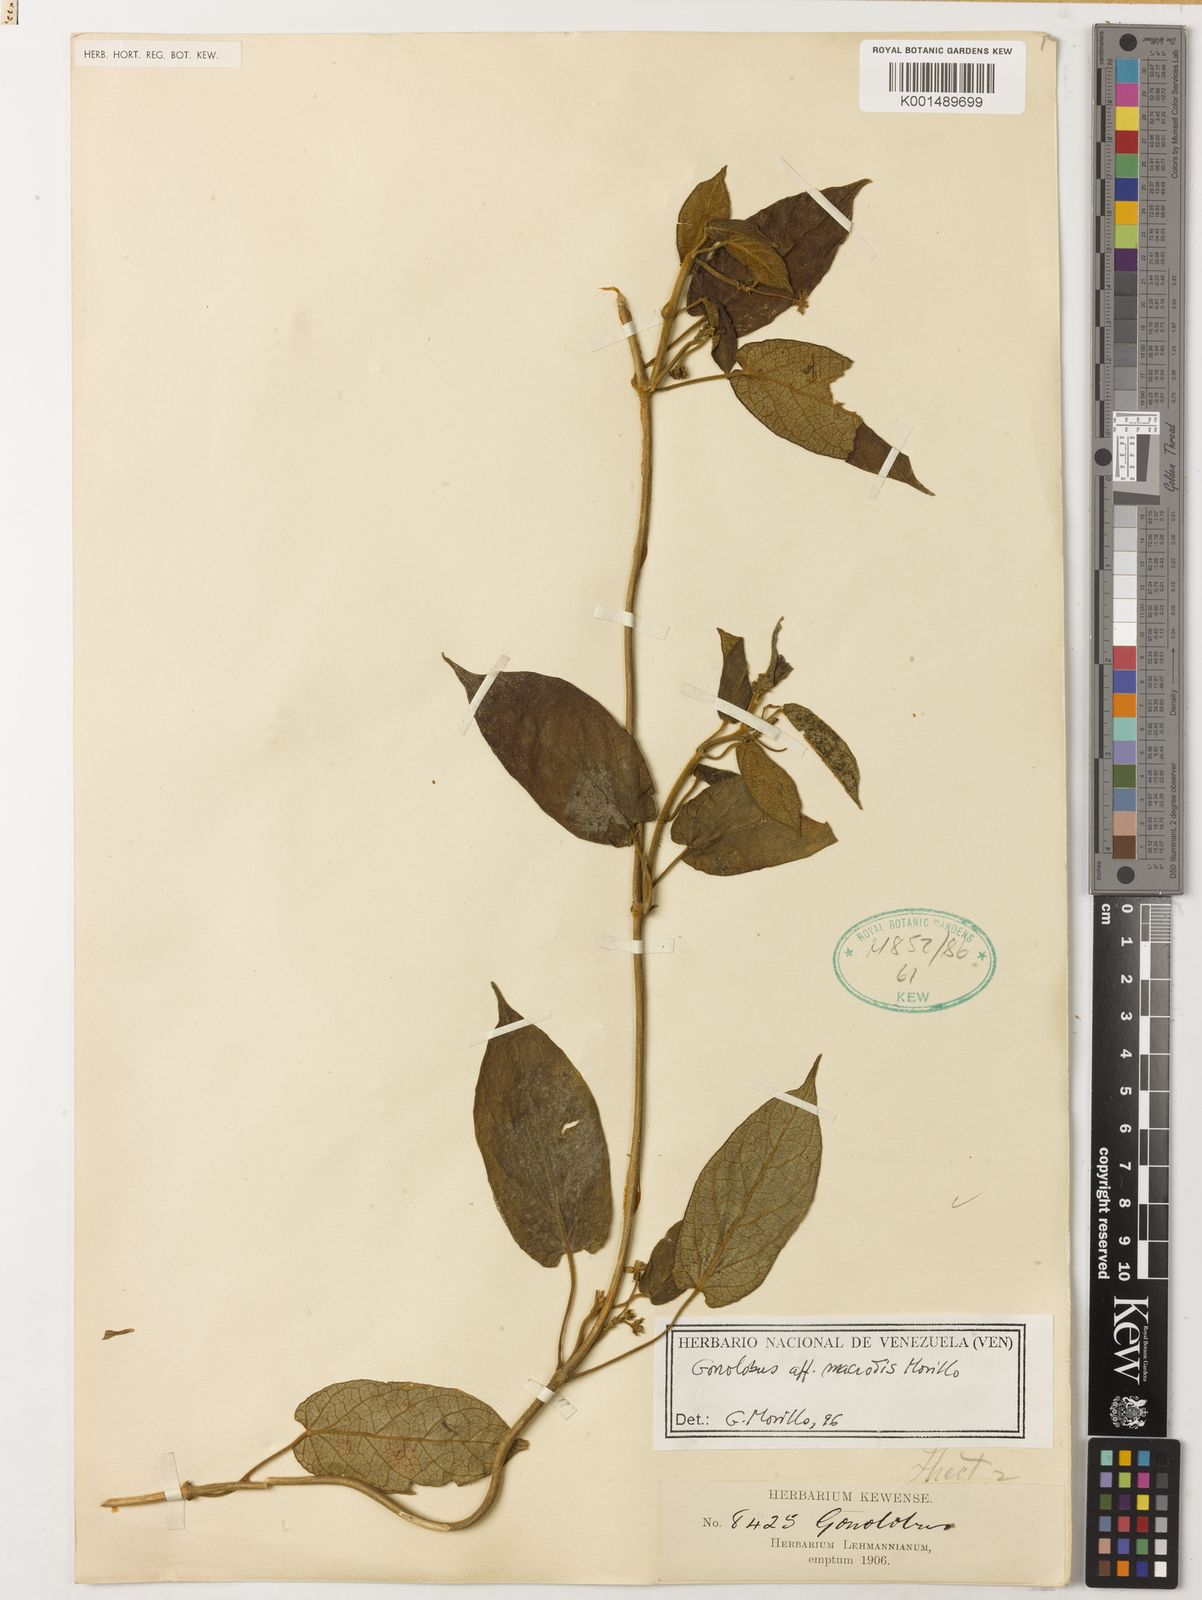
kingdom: Plantae
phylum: Tracheophyta
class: Magnoliopsida
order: Gentianales
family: Apocynaceae
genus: Gonolobus
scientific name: Gonolobus macrotis
